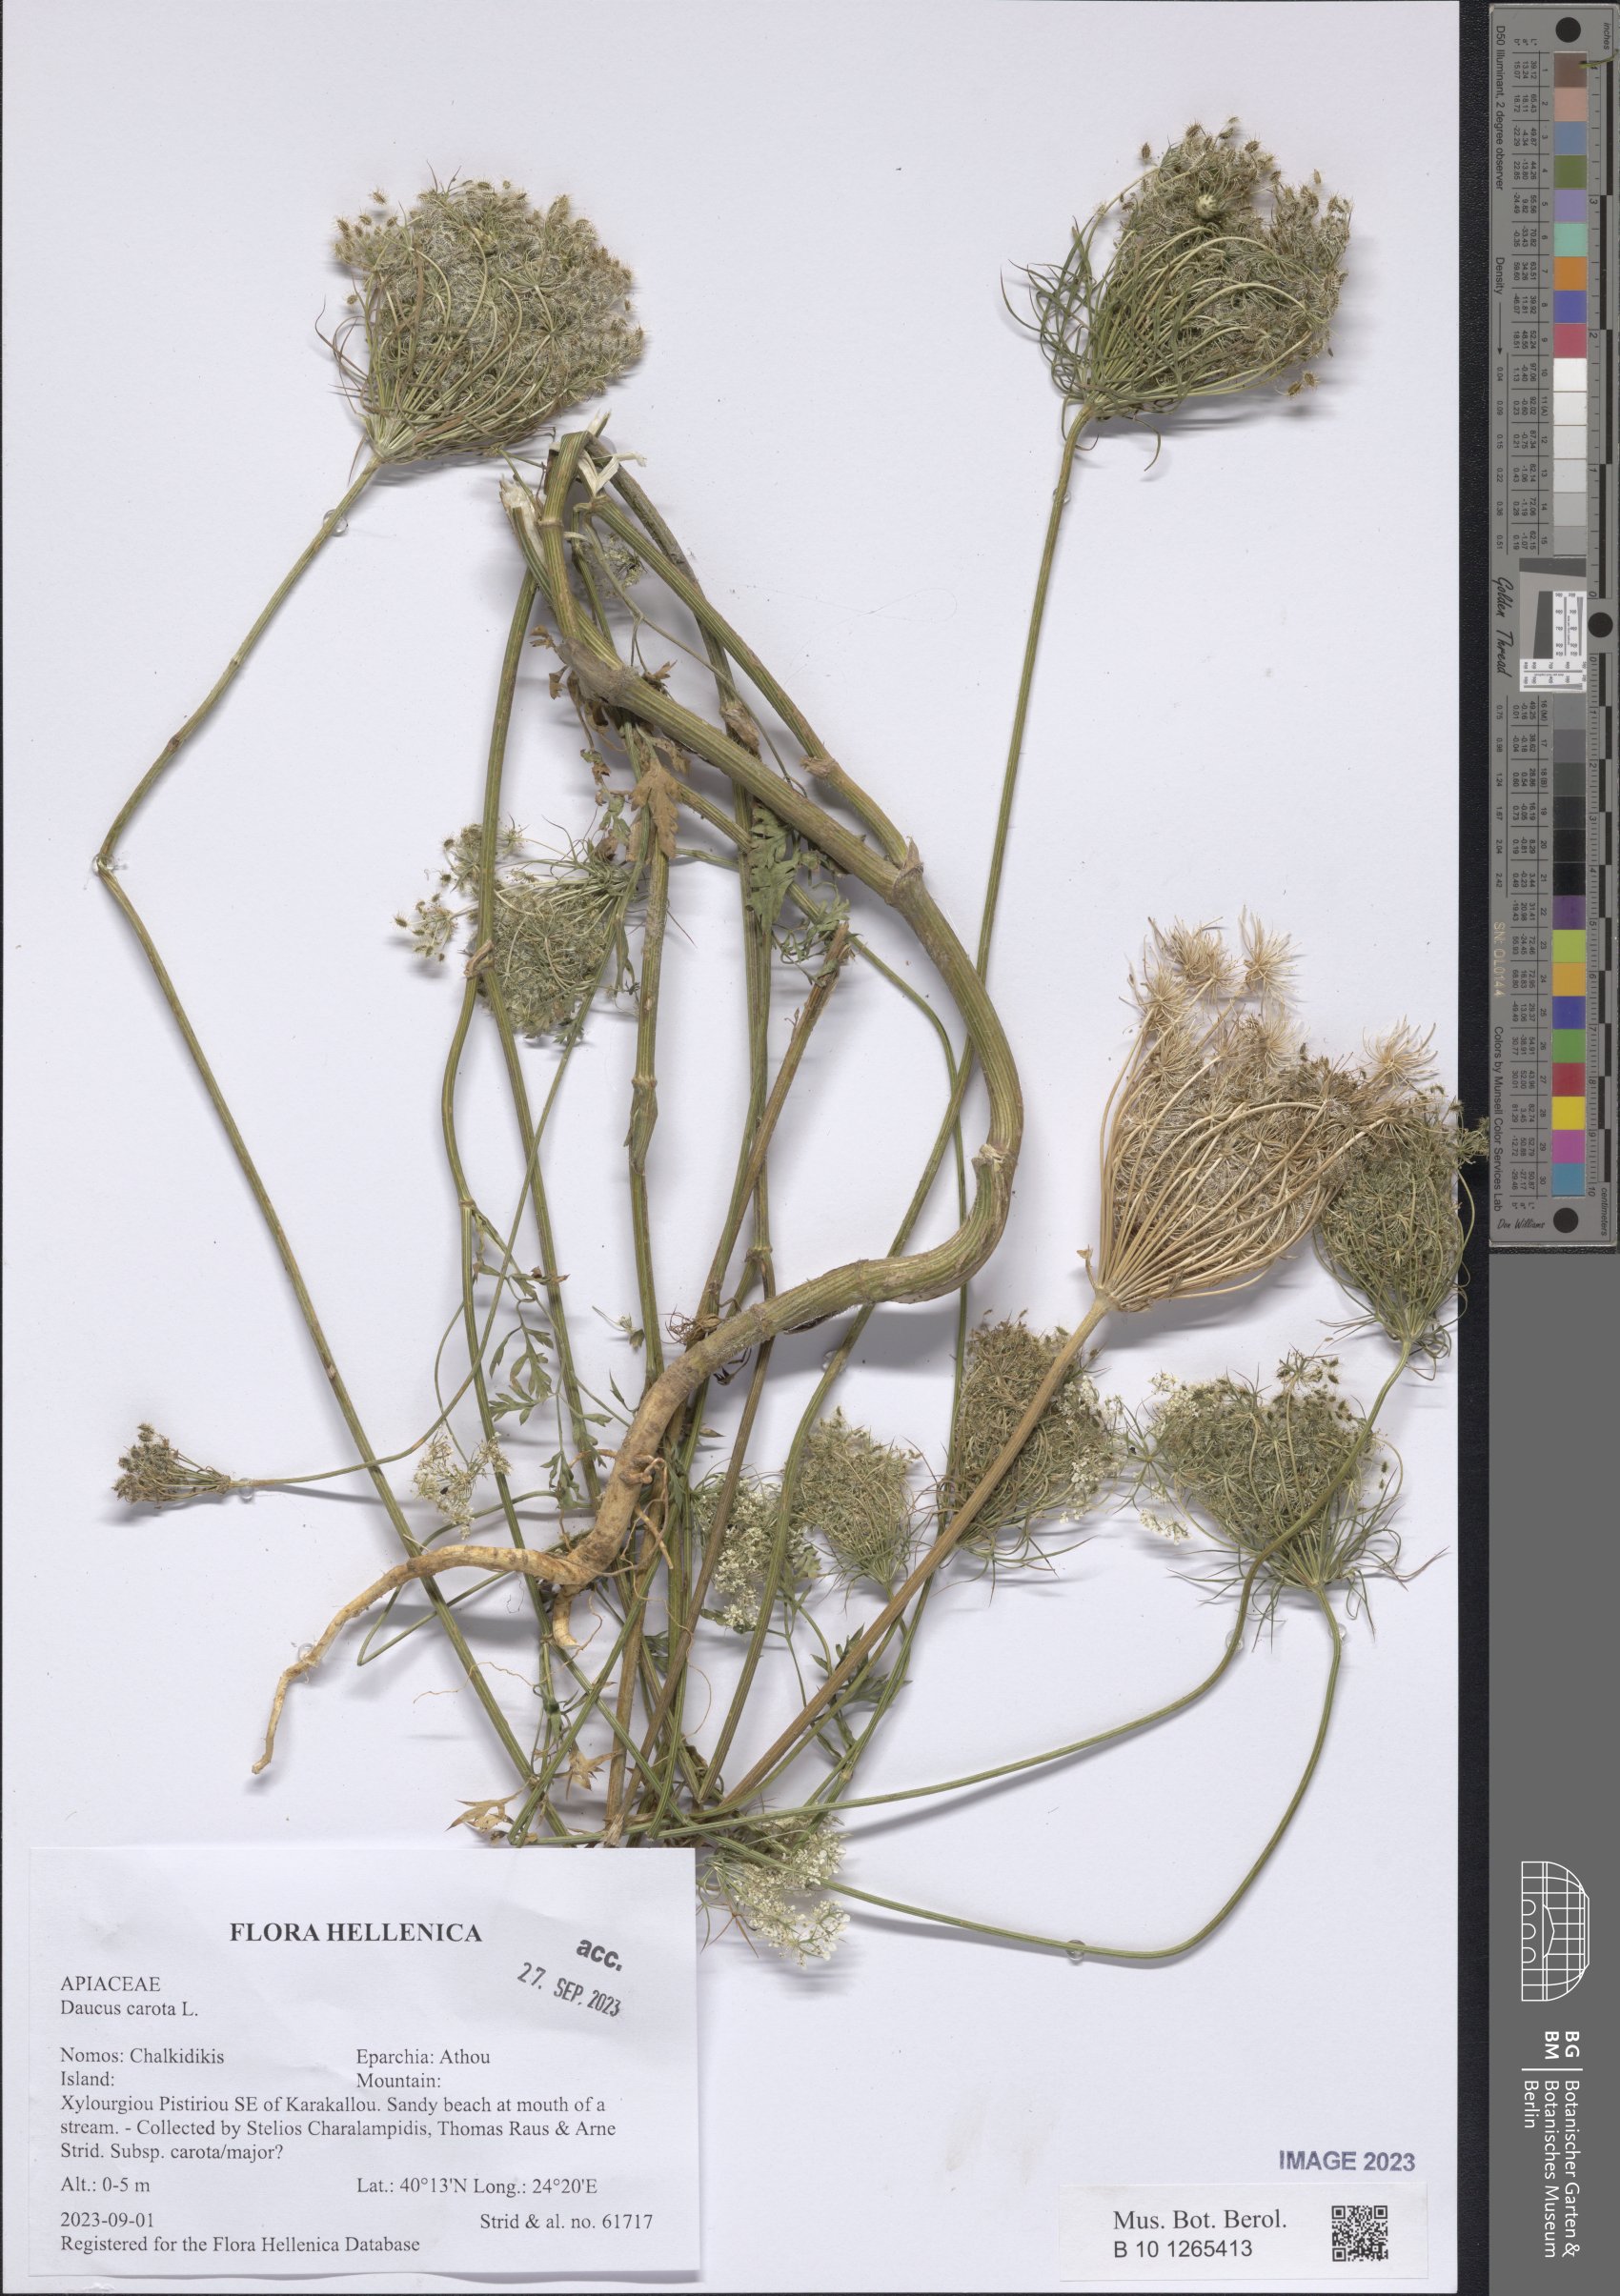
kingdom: Plantae
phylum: Tracheophyta
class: Magnoliopsida
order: Apiales
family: Apiaceae
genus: Daucus
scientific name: Daucus carota
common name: Wild carrot
